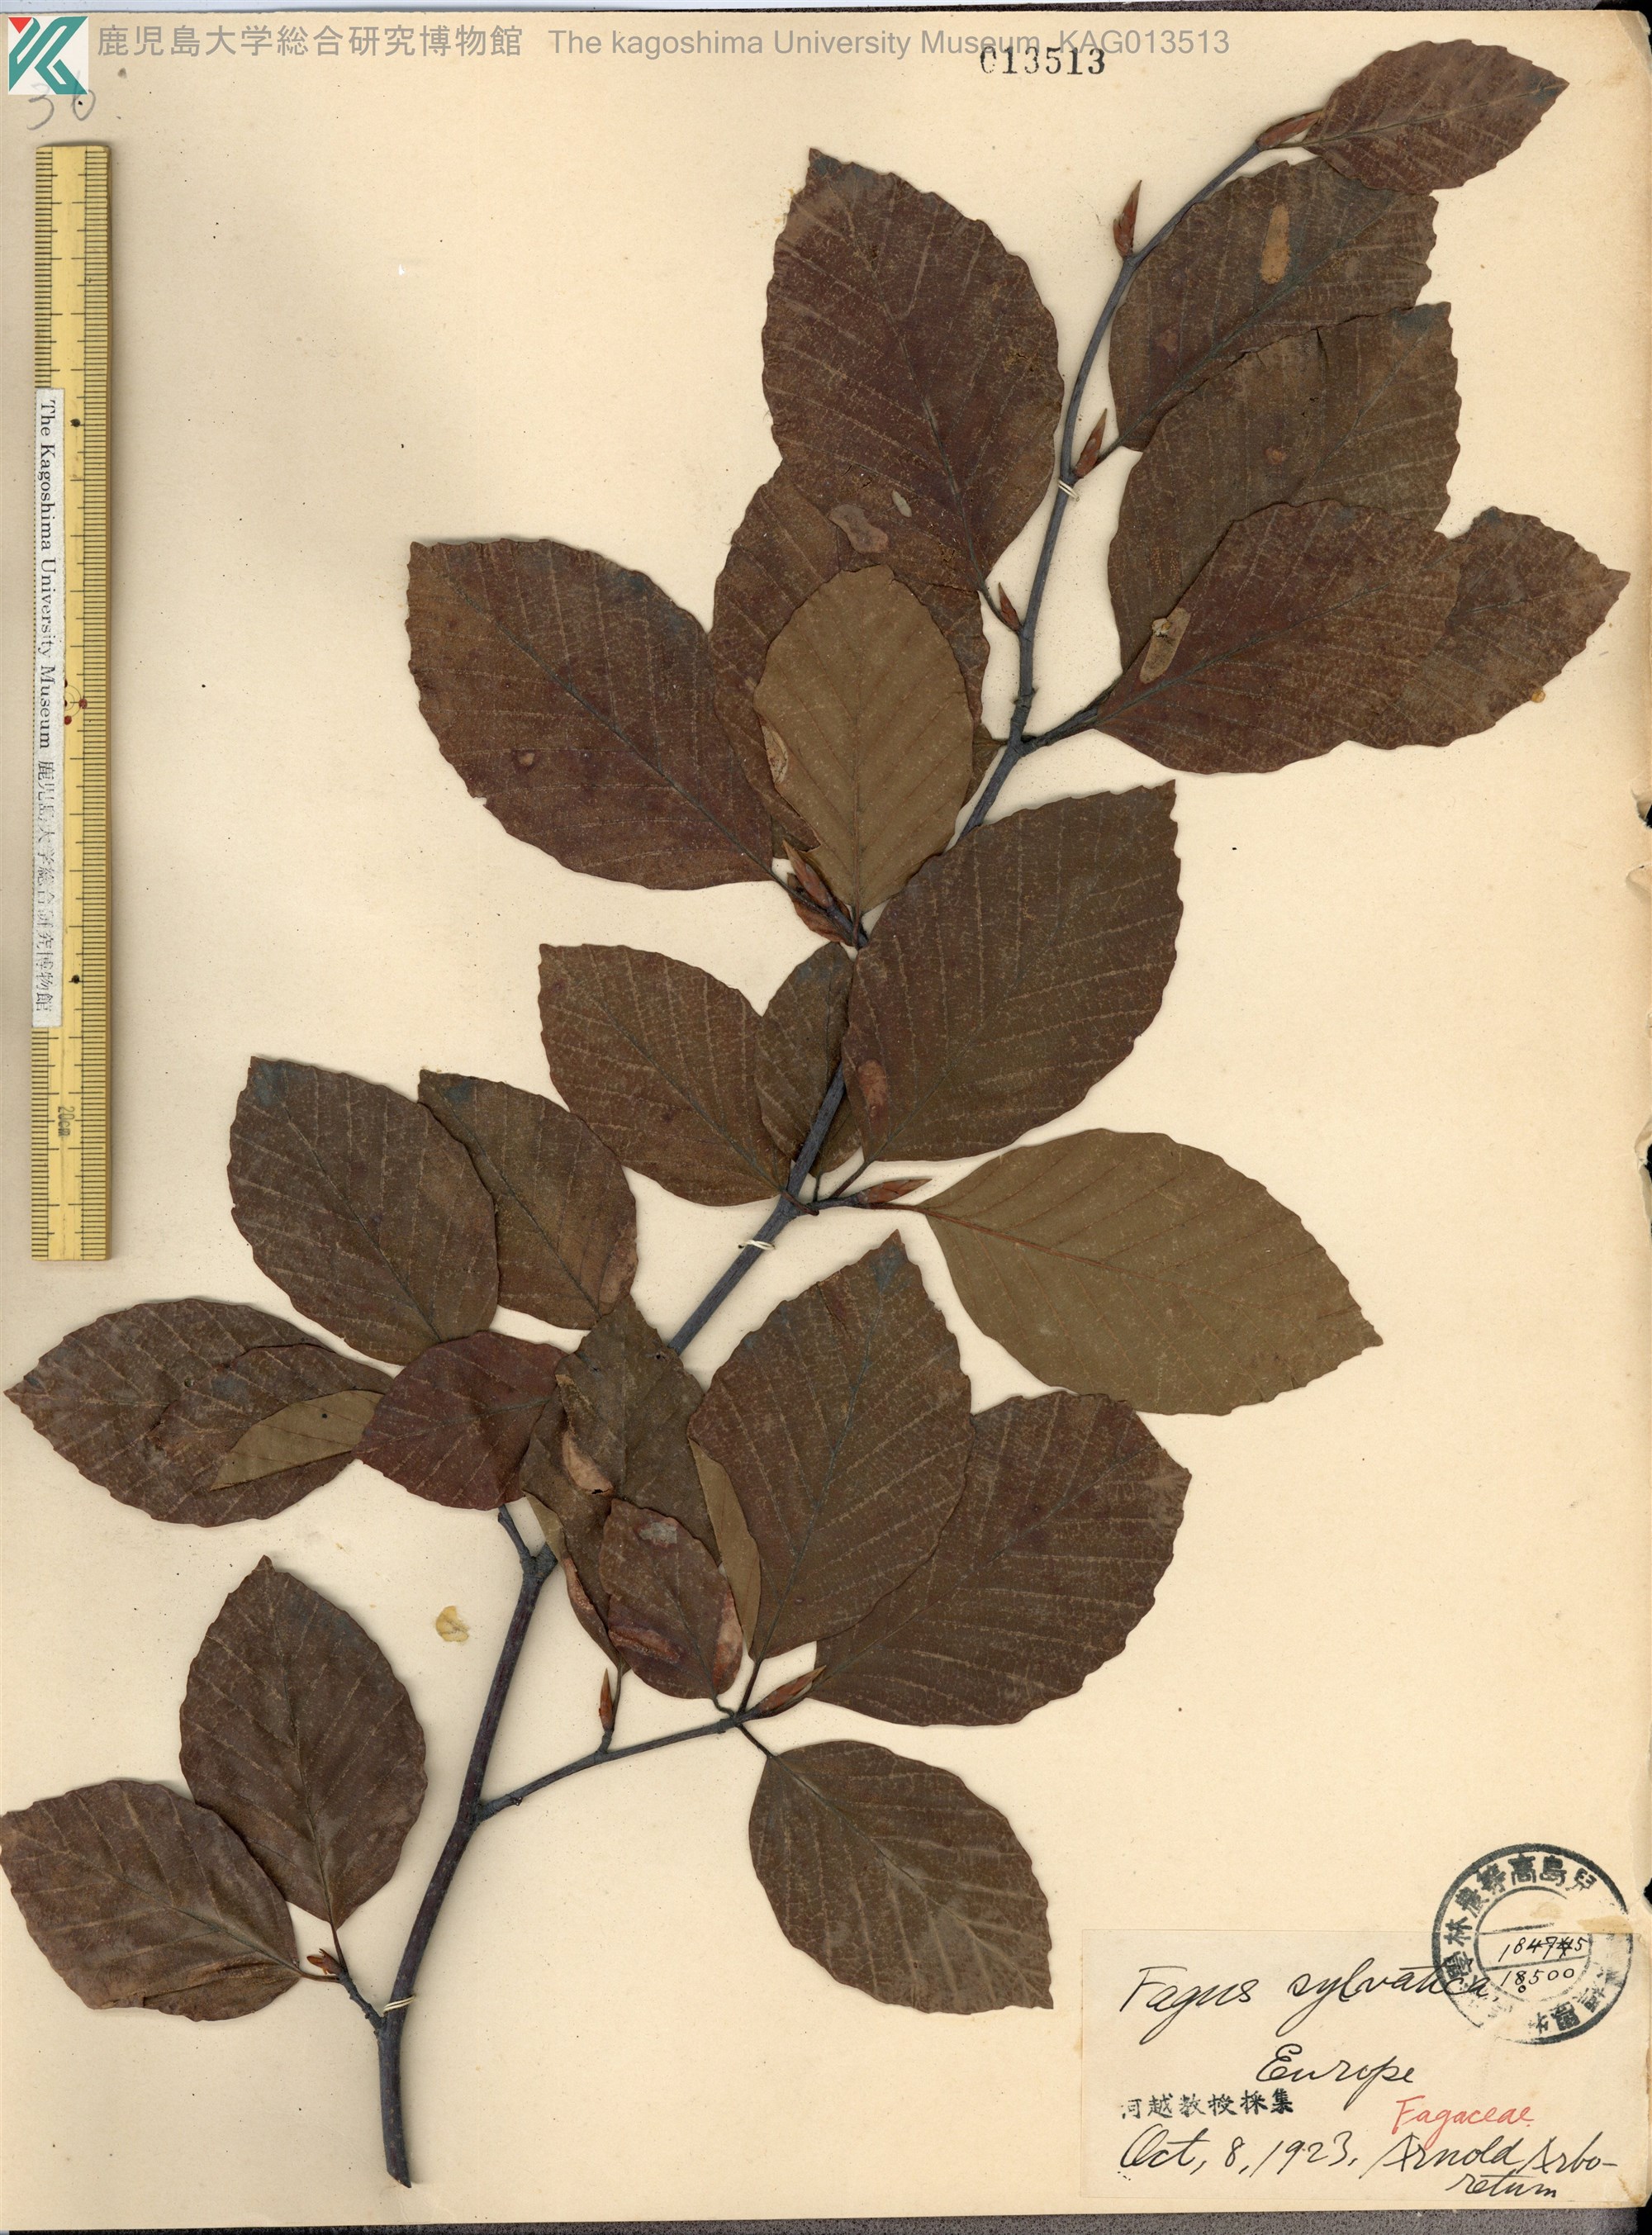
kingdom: Plantae
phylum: Tracheophyta
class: Magnoliopsida
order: Fagales
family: Fagaceae
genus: Fagus
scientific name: Fagus sylvatica
